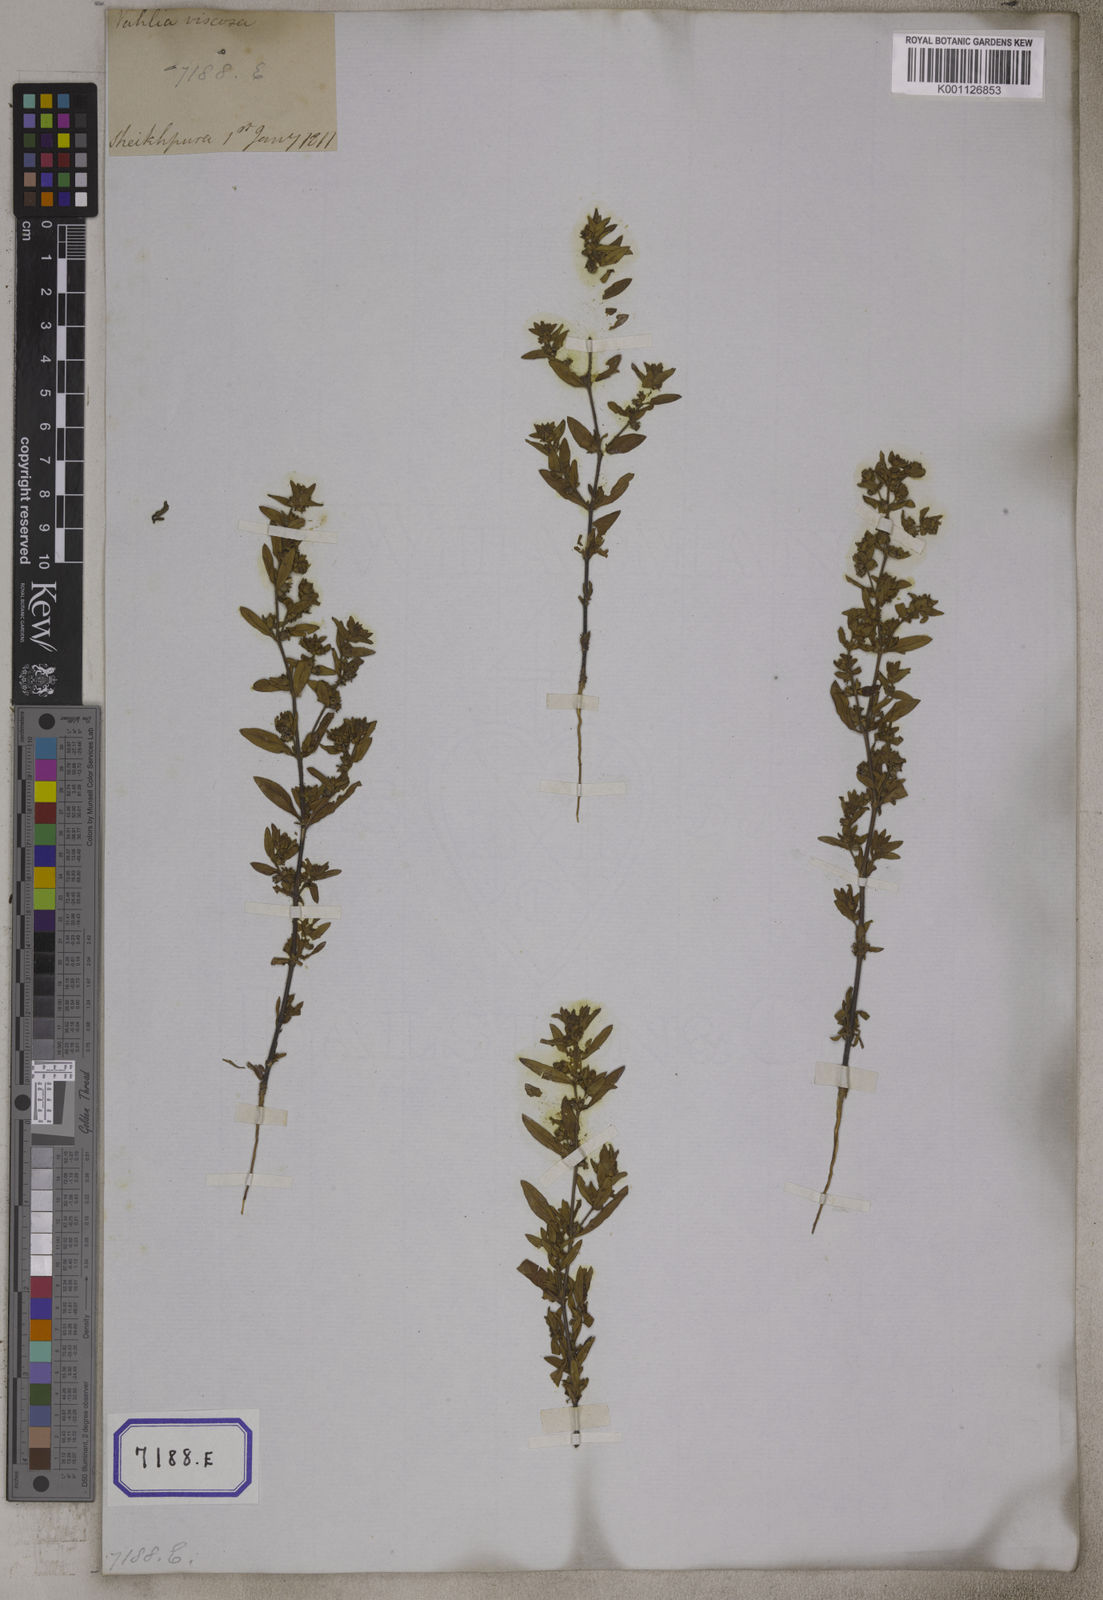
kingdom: Plantae
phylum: Tracheophyta
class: Magnoliopsida
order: Vahliales
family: Vahliaceae
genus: Vahlia
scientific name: Vahlia digyna
